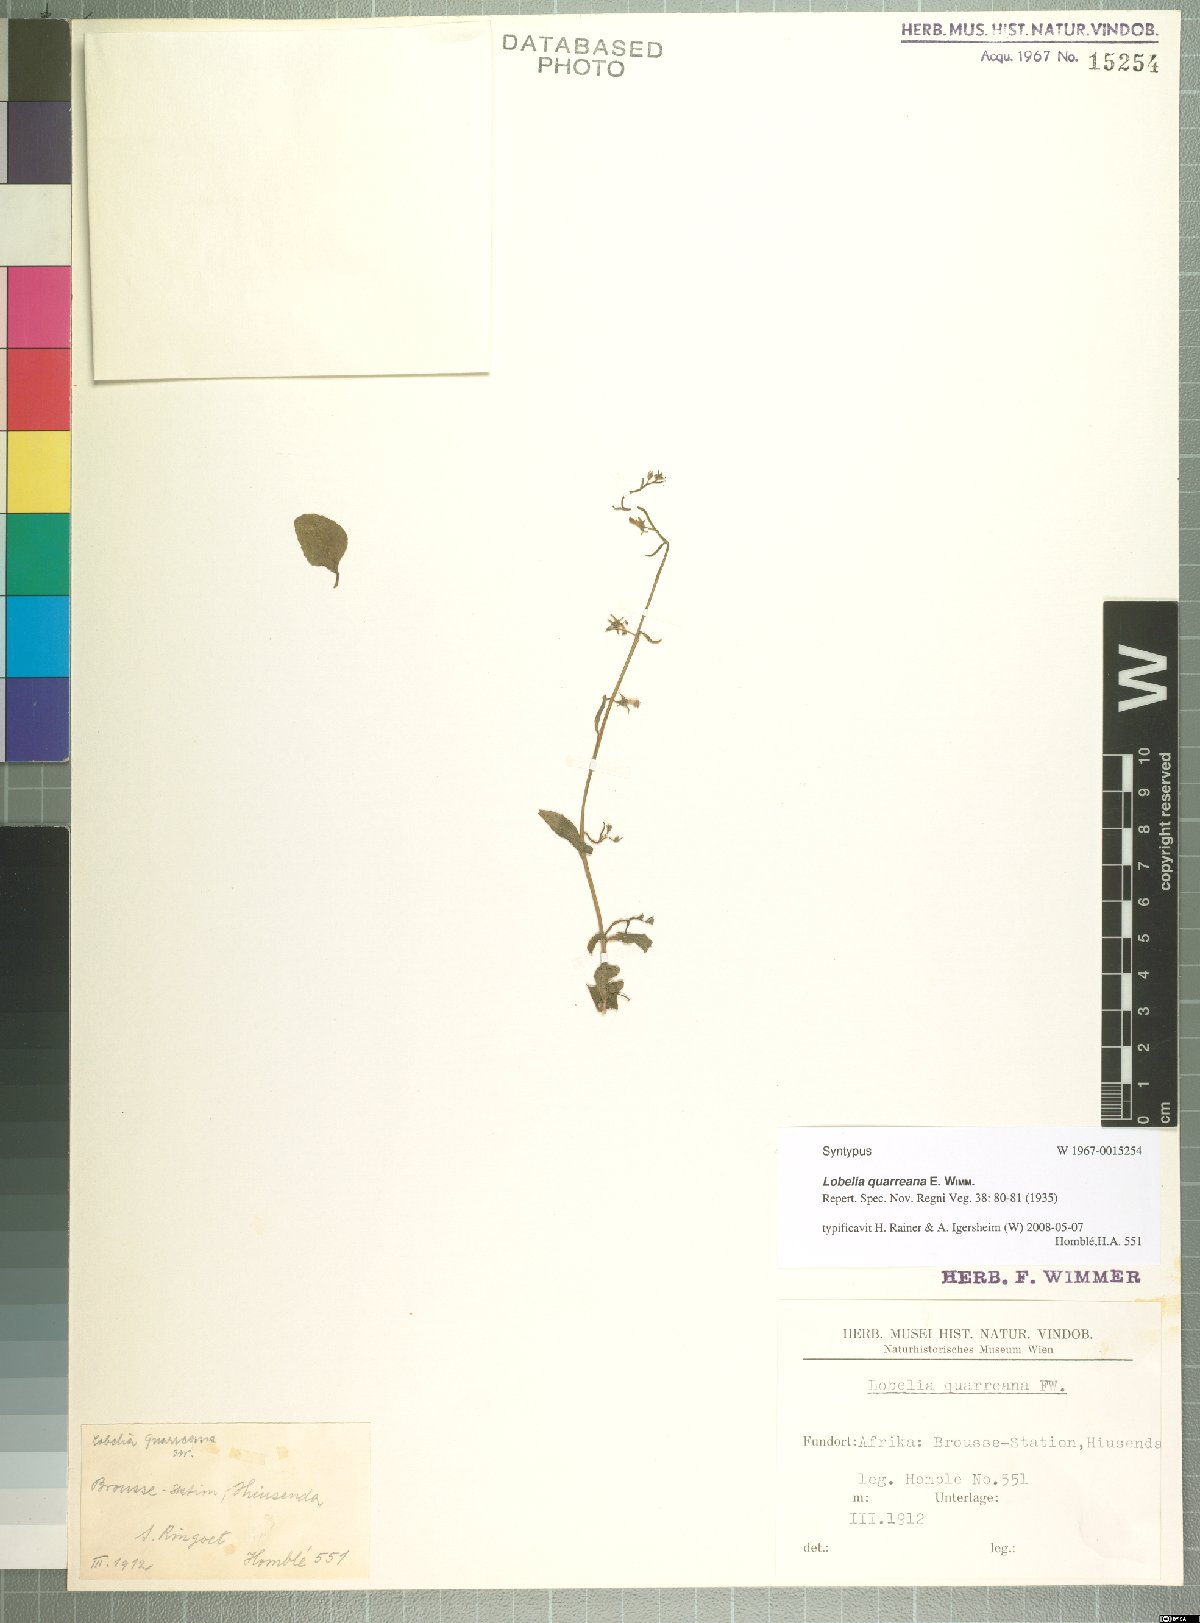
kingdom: Plantae
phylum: Tracheophyta
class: Magnoliopsida
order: Asterales
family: Campanulaceae
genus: Lobelia
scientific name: Lobelia quarreana
